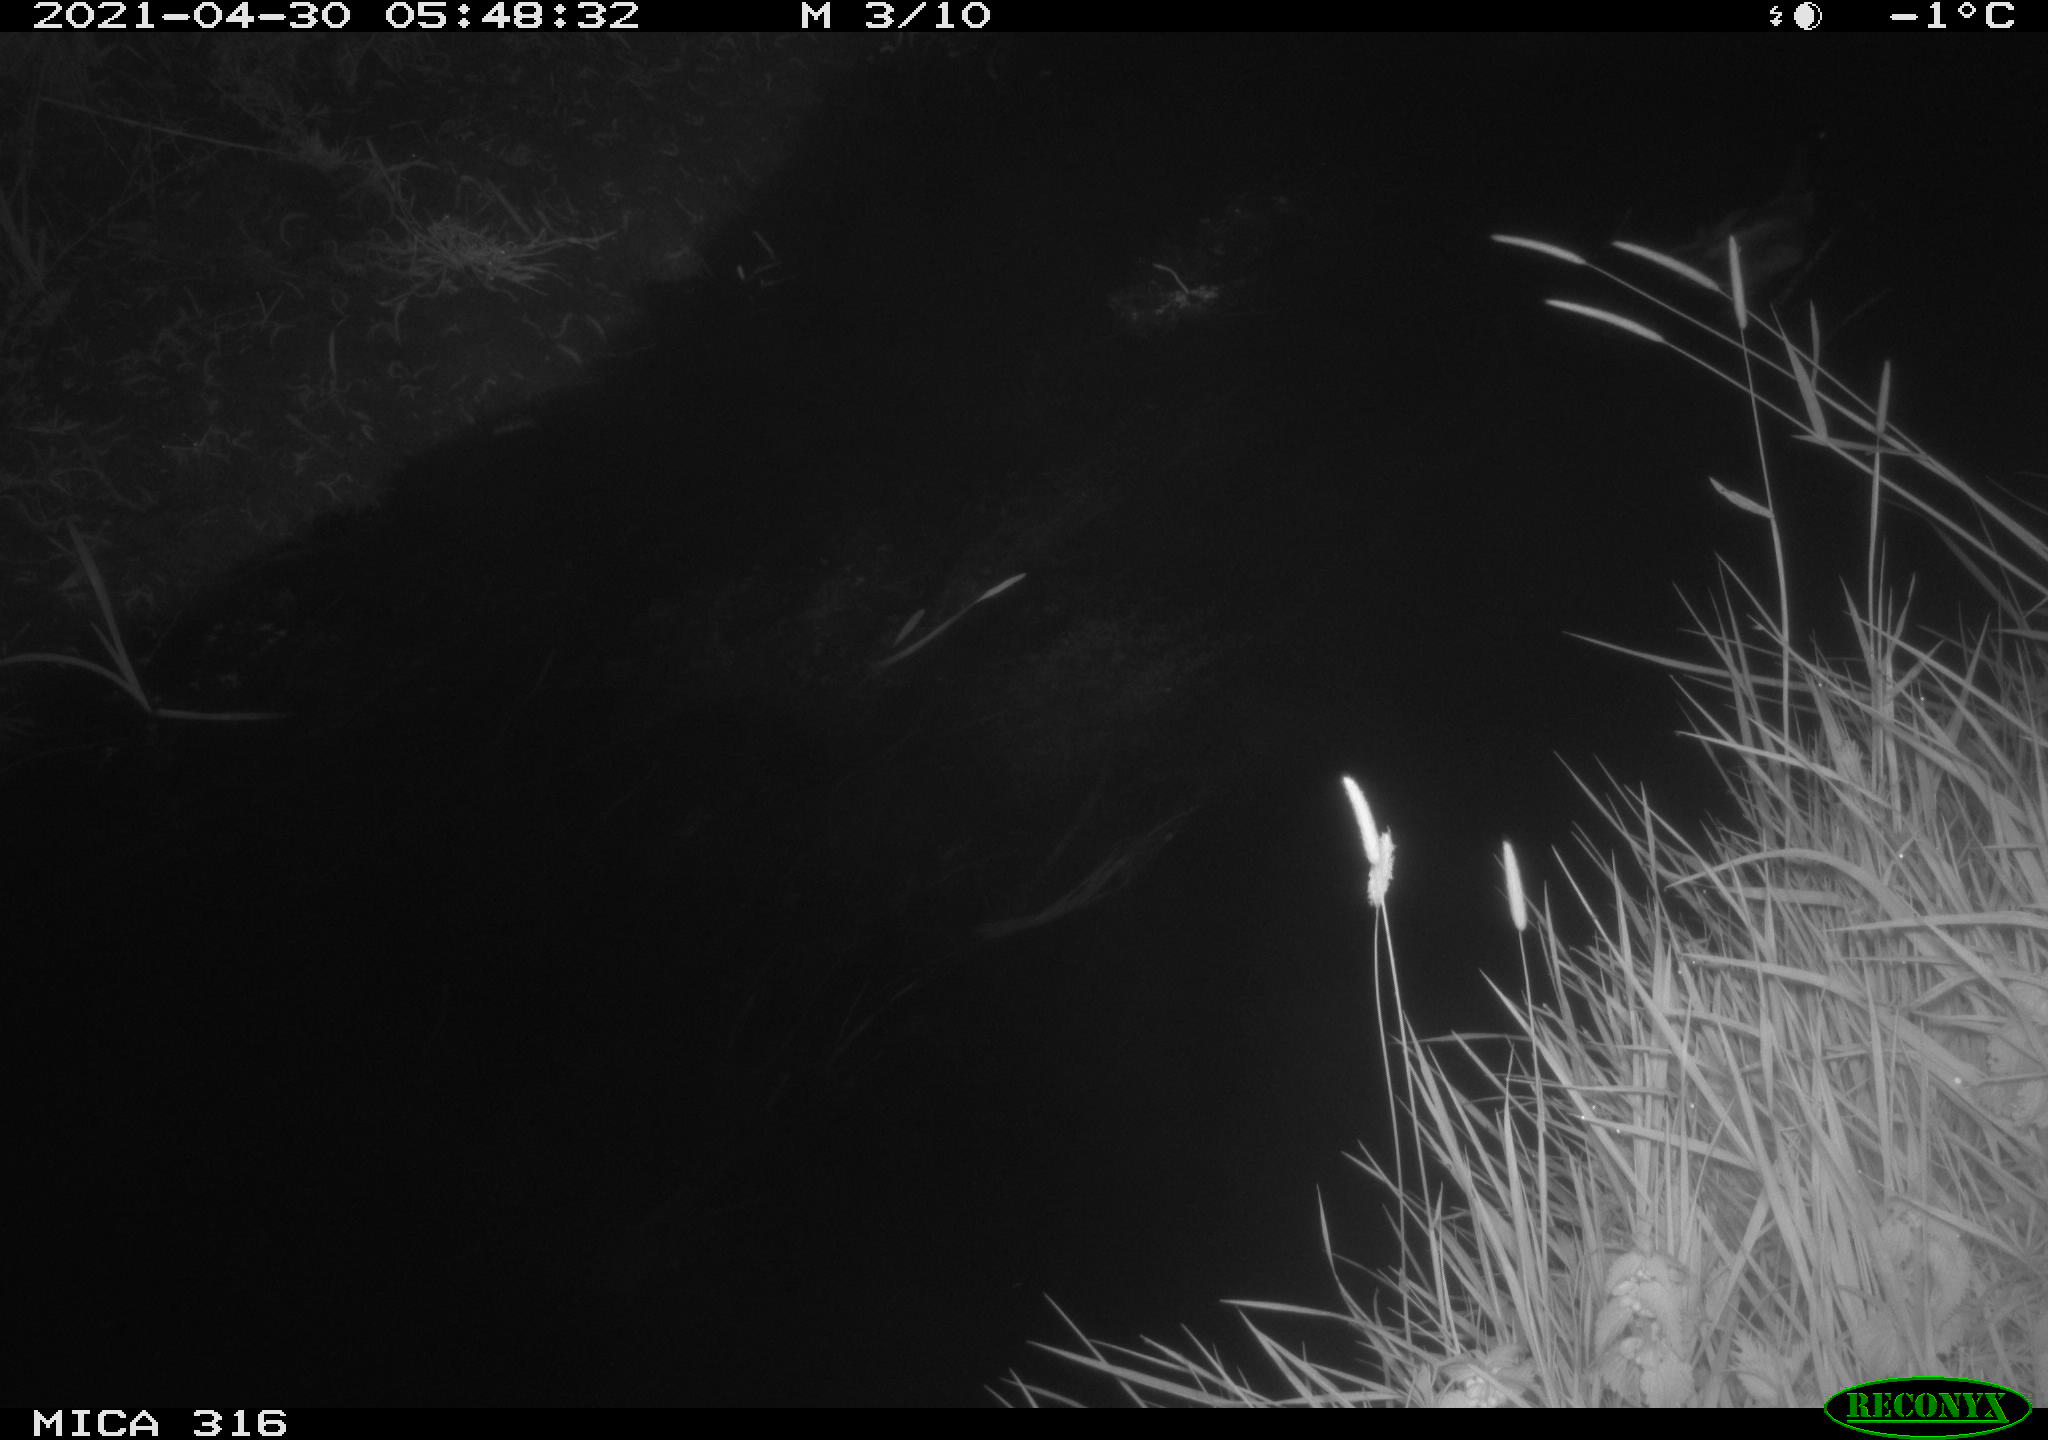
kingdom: Animalia
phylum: Chordata
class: Aves
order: Anseriformes
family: Anatidae
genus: Anas
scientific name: Anas platyrhynchos
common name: Mallard
